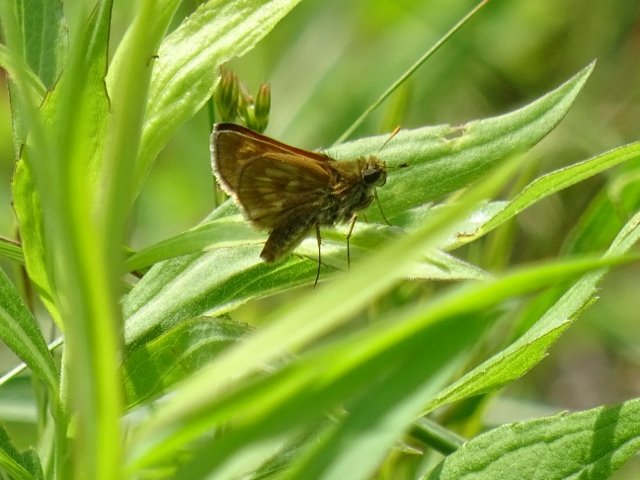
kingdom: Animalia
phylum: Arthropoda
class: Insecta
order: Lepidoptera
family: Hesperiidae
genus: Polites
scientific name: Polites
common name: Long Dash Skipper
